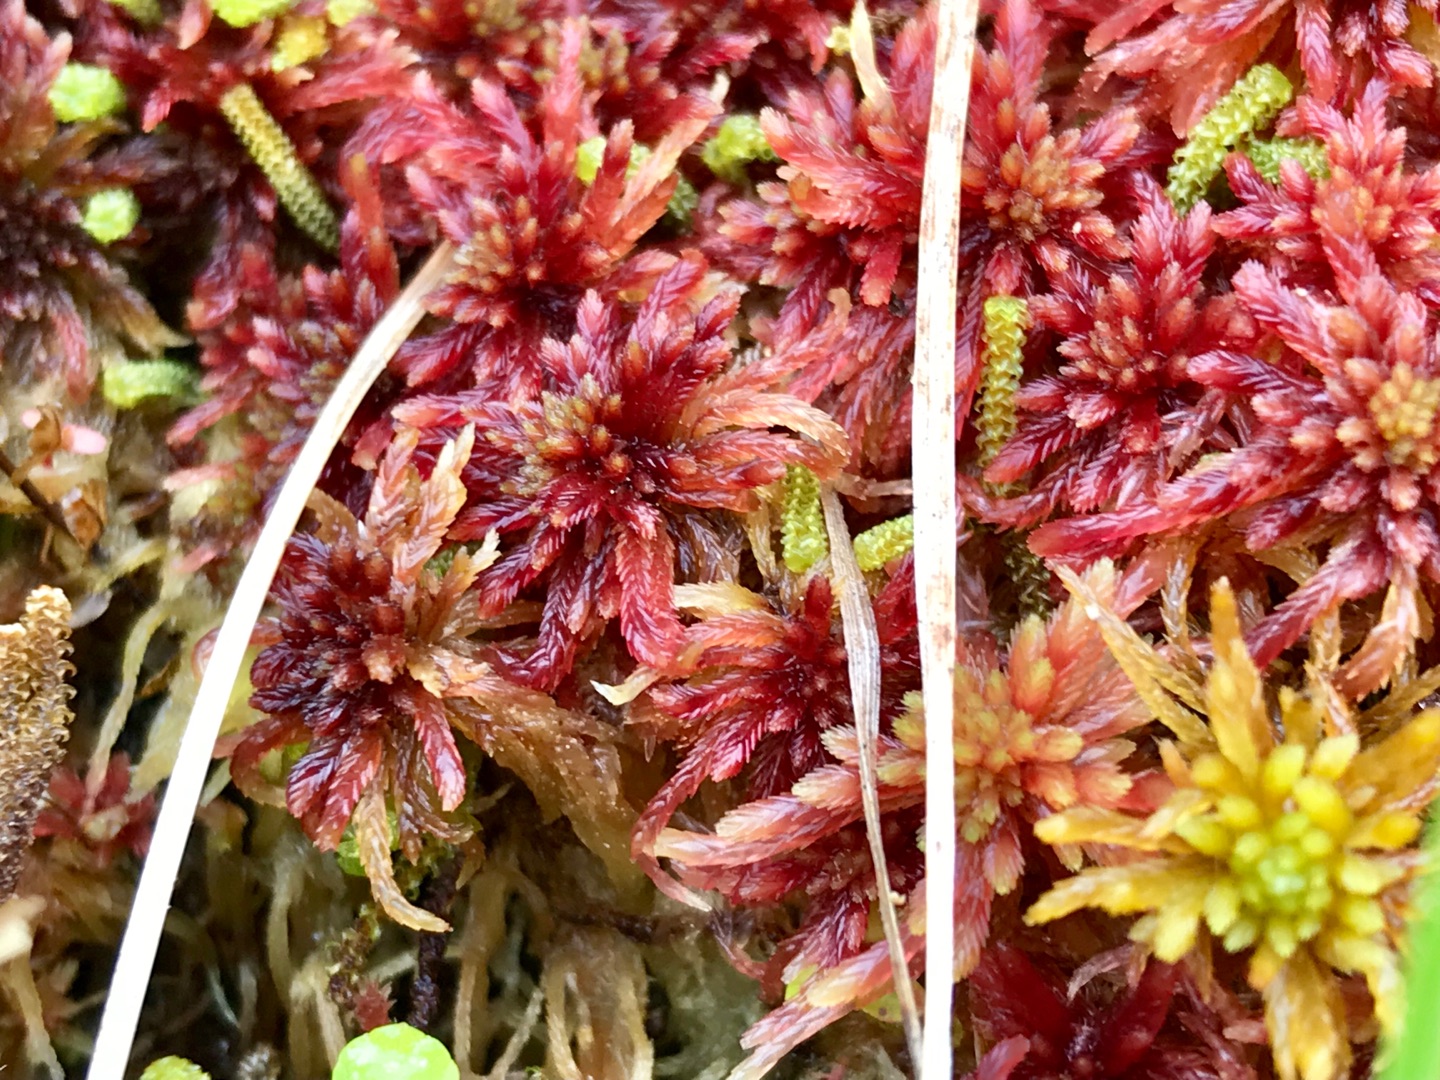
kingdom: Plantae
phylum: Bryophyta
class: Sphagnopsida
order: Sphagnales
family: Sphagnaceae
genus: Sphagnum
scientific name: Sphagnum warnstorfii
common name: Blygrå tørvemos
